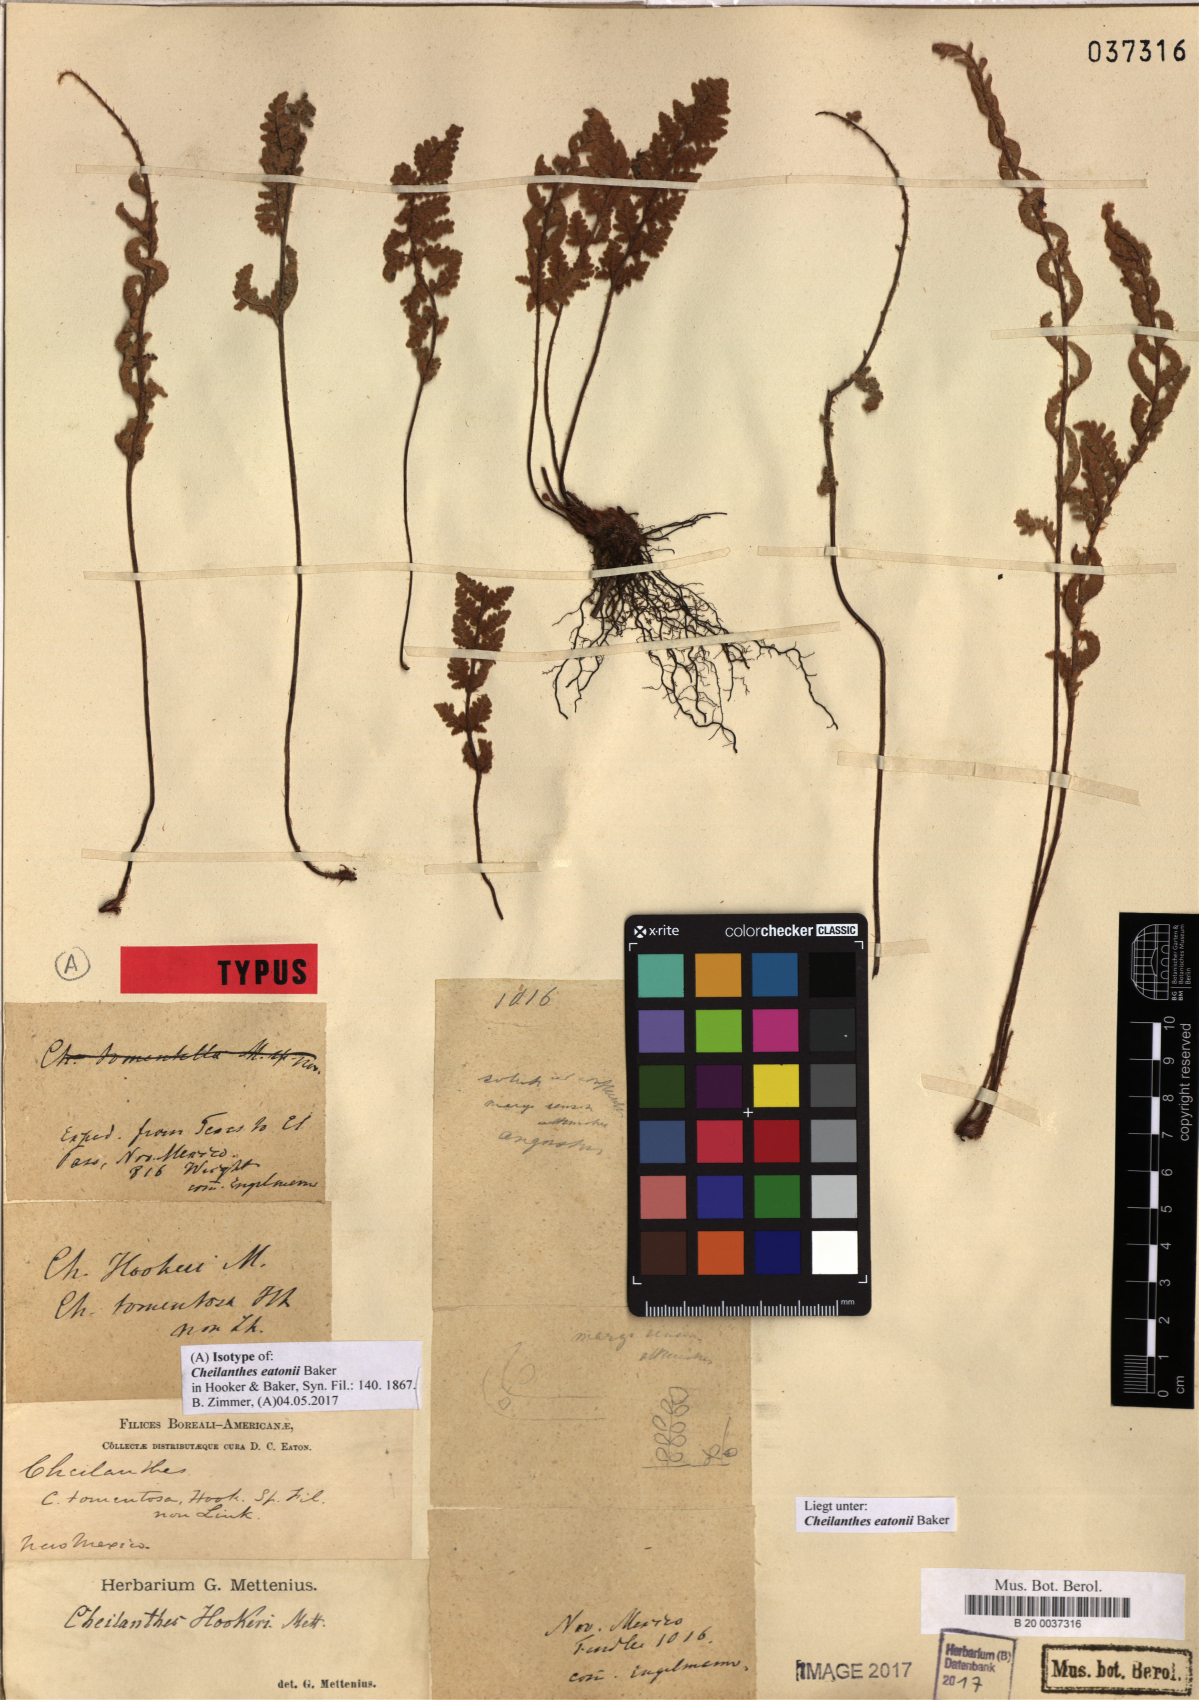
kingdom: Plantae
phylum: Tracheophyta
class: Polypodiopsida
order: Polypodiales
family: Pteridaceae
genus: Myriopteris
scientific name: Myriopteris rufa
